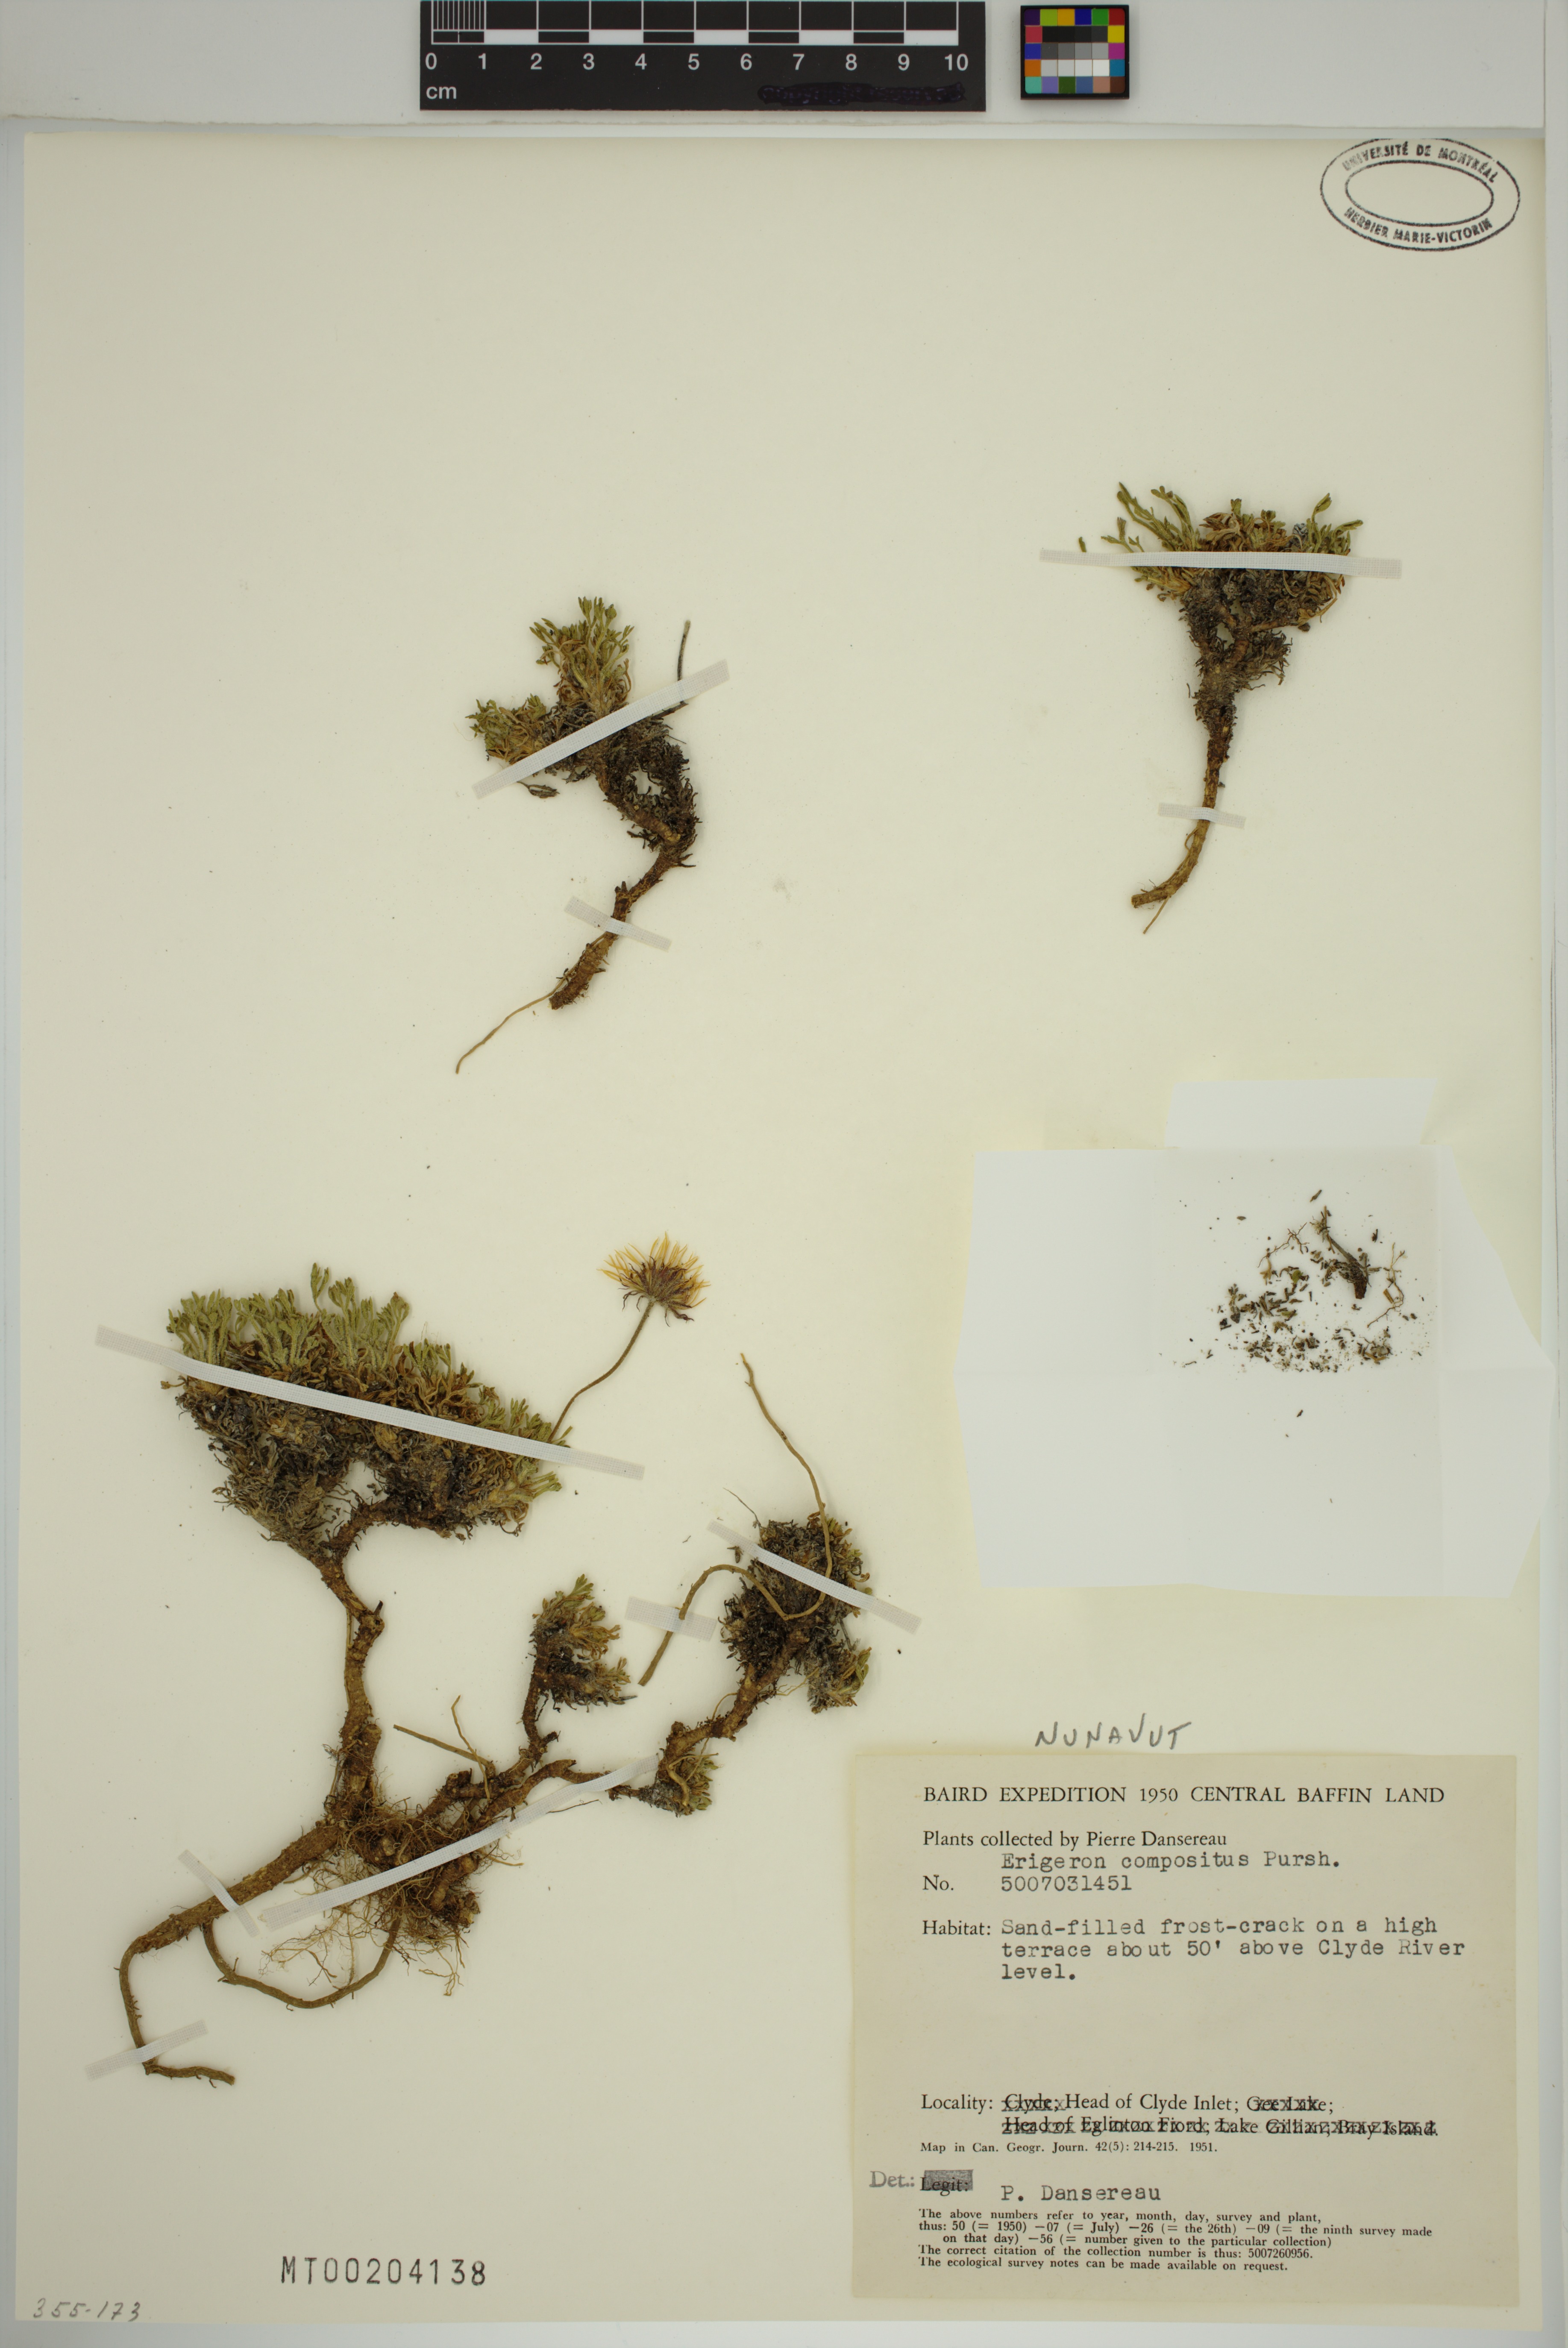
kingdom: Plantae
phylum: Tracheophyta
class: Magnoliopsida
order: Asterales
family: Asteraceae
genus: Erigeron
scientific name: Erigeron compositus
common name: Dwarf mountain fleabane
